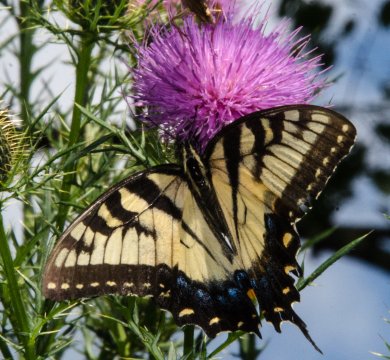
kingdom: Animalia
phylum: Arthropoda
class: Insecta
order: Lepidoptera
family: Papilionidae
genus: Pterourus
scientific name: Pterourus glaucus
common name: Eastern Tiger Swallowtail
